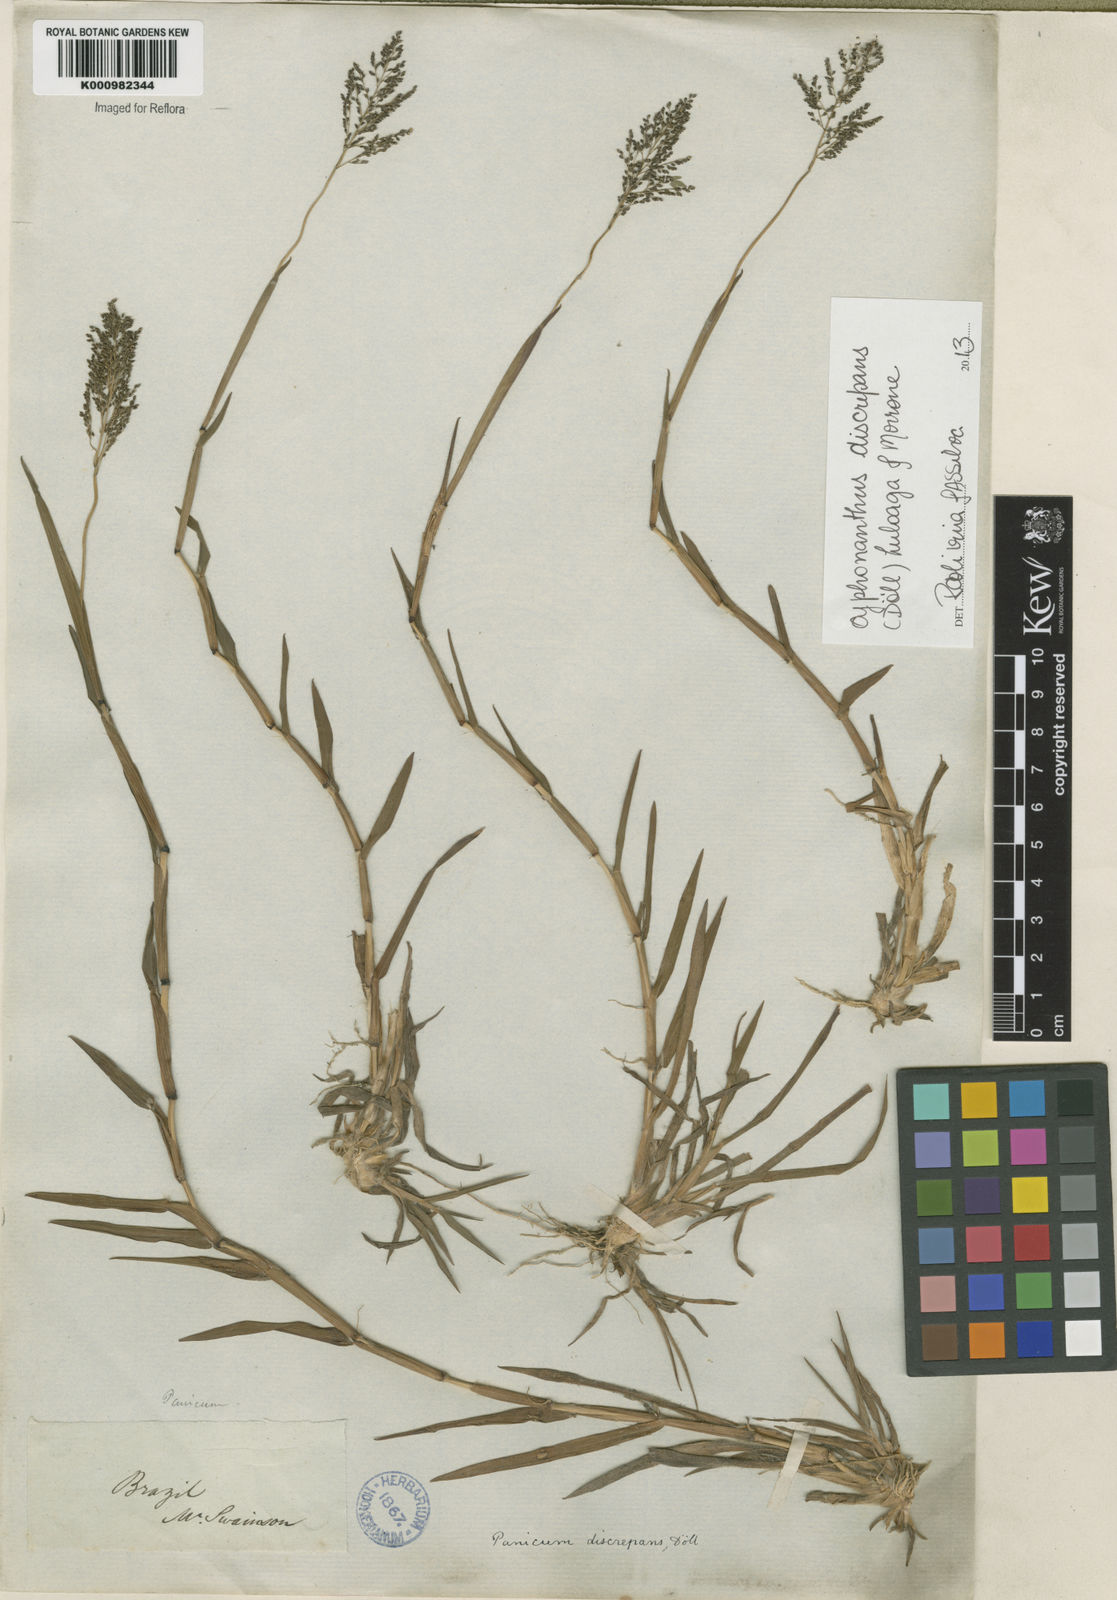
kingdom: Plantae
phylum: Tracheophyta
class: Liliopsida
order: Poales
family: Poaceae
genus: Panicum
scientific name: Panicum
